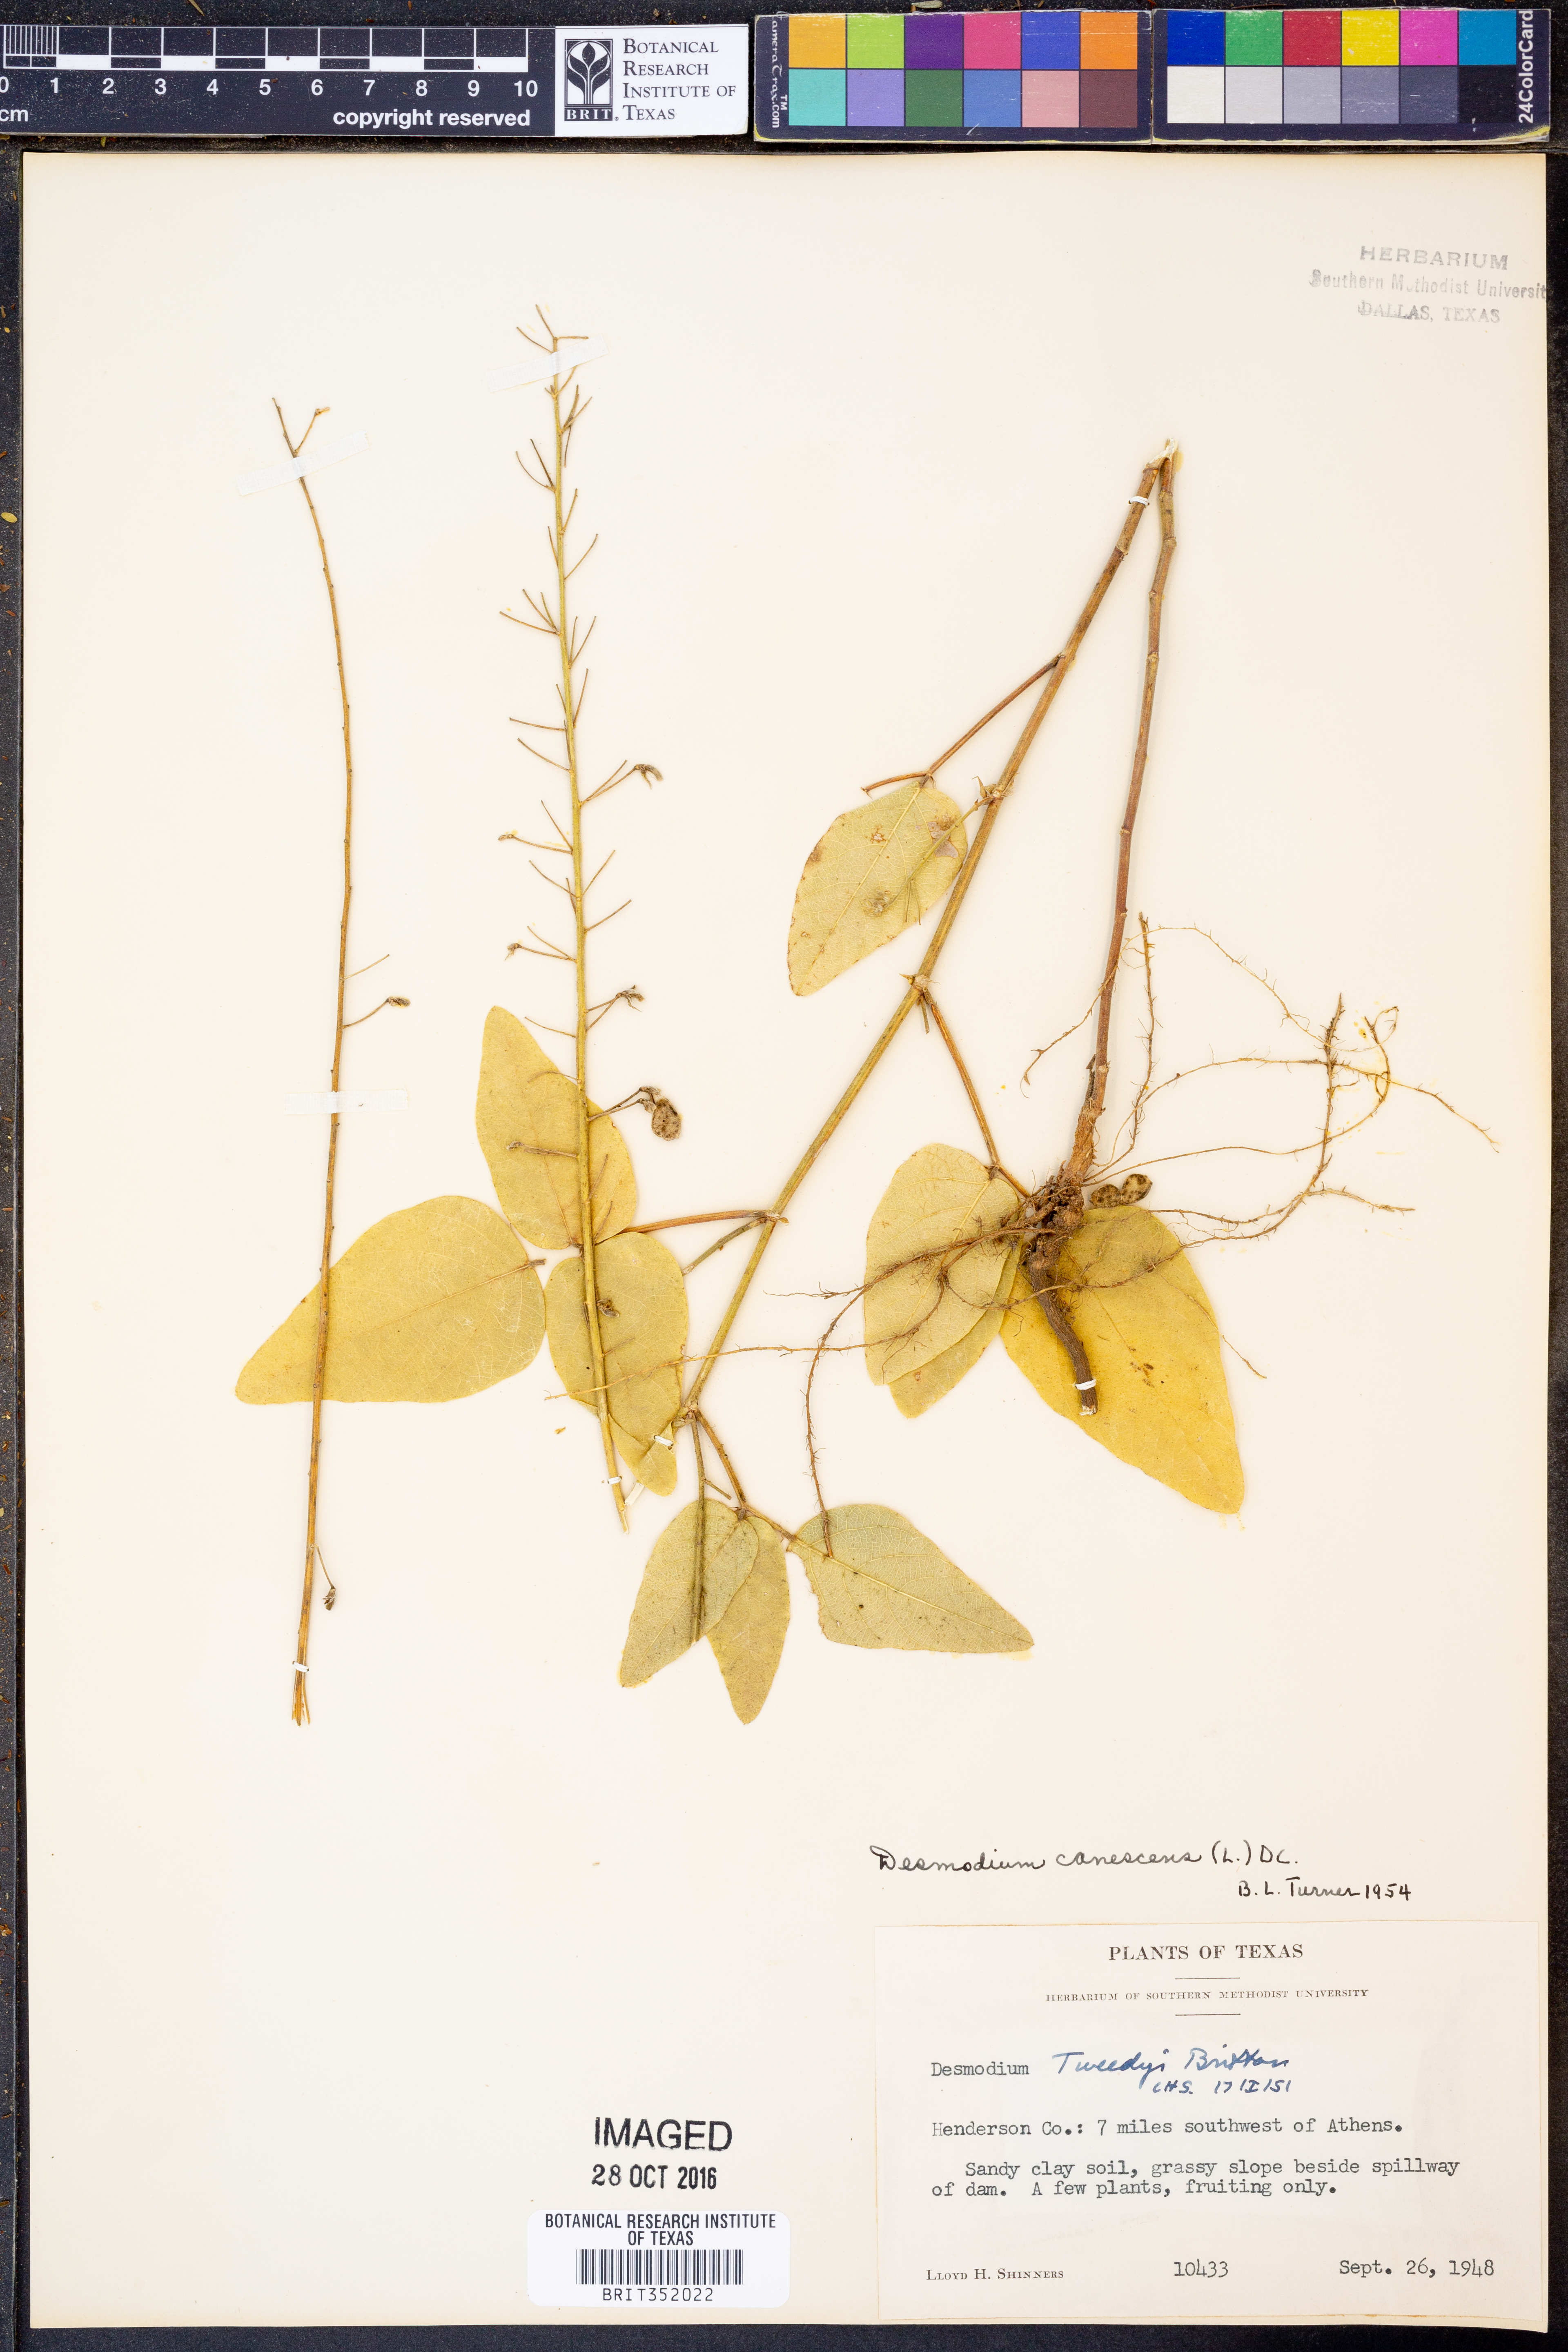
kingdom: Plantae
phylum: Tracheophyta
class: Magnoliopsida
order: Fabales
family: Fabaceae
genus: Desmodium
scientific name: Desmodium canescens
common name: Hoary tick-clover
